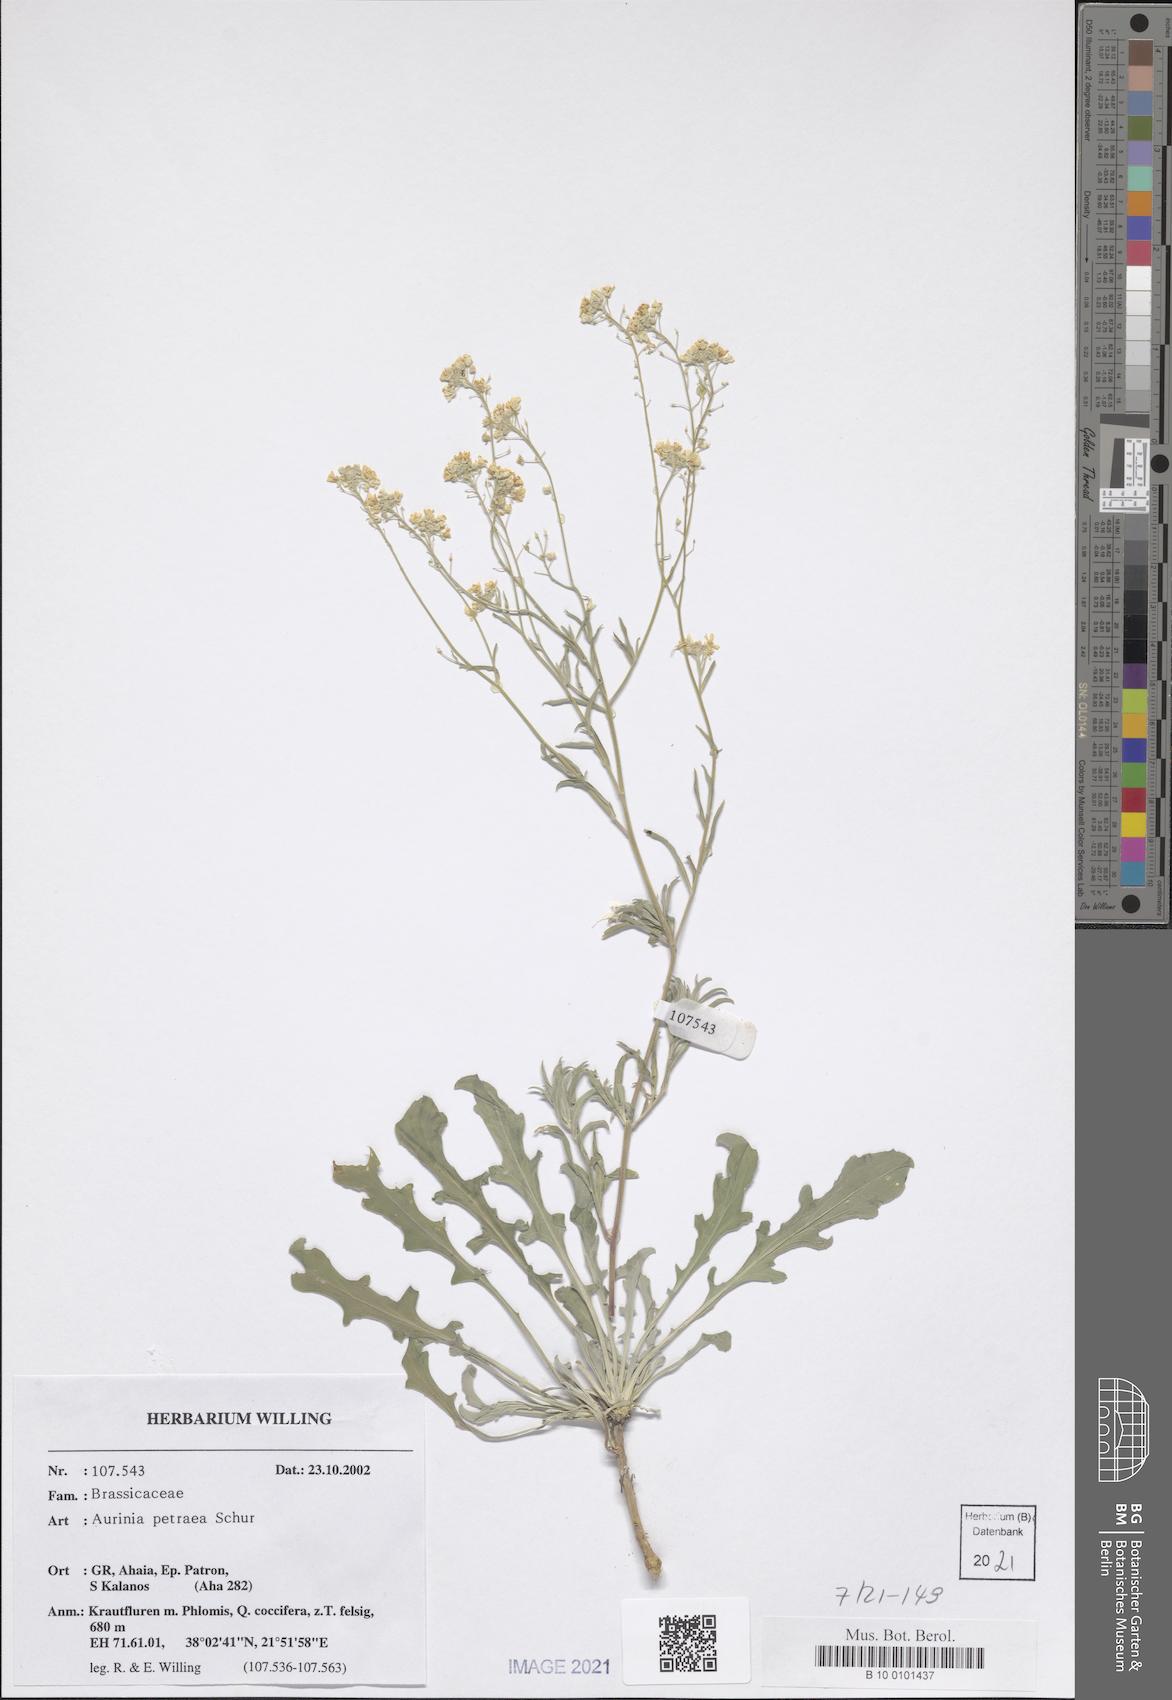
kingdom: Plantae
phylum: Tracheophyta
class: Magnoliopsida
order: Brassicales
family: Brassicaceae
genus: Aurinia
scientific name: Aurinia petraea
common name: Goldentuft
